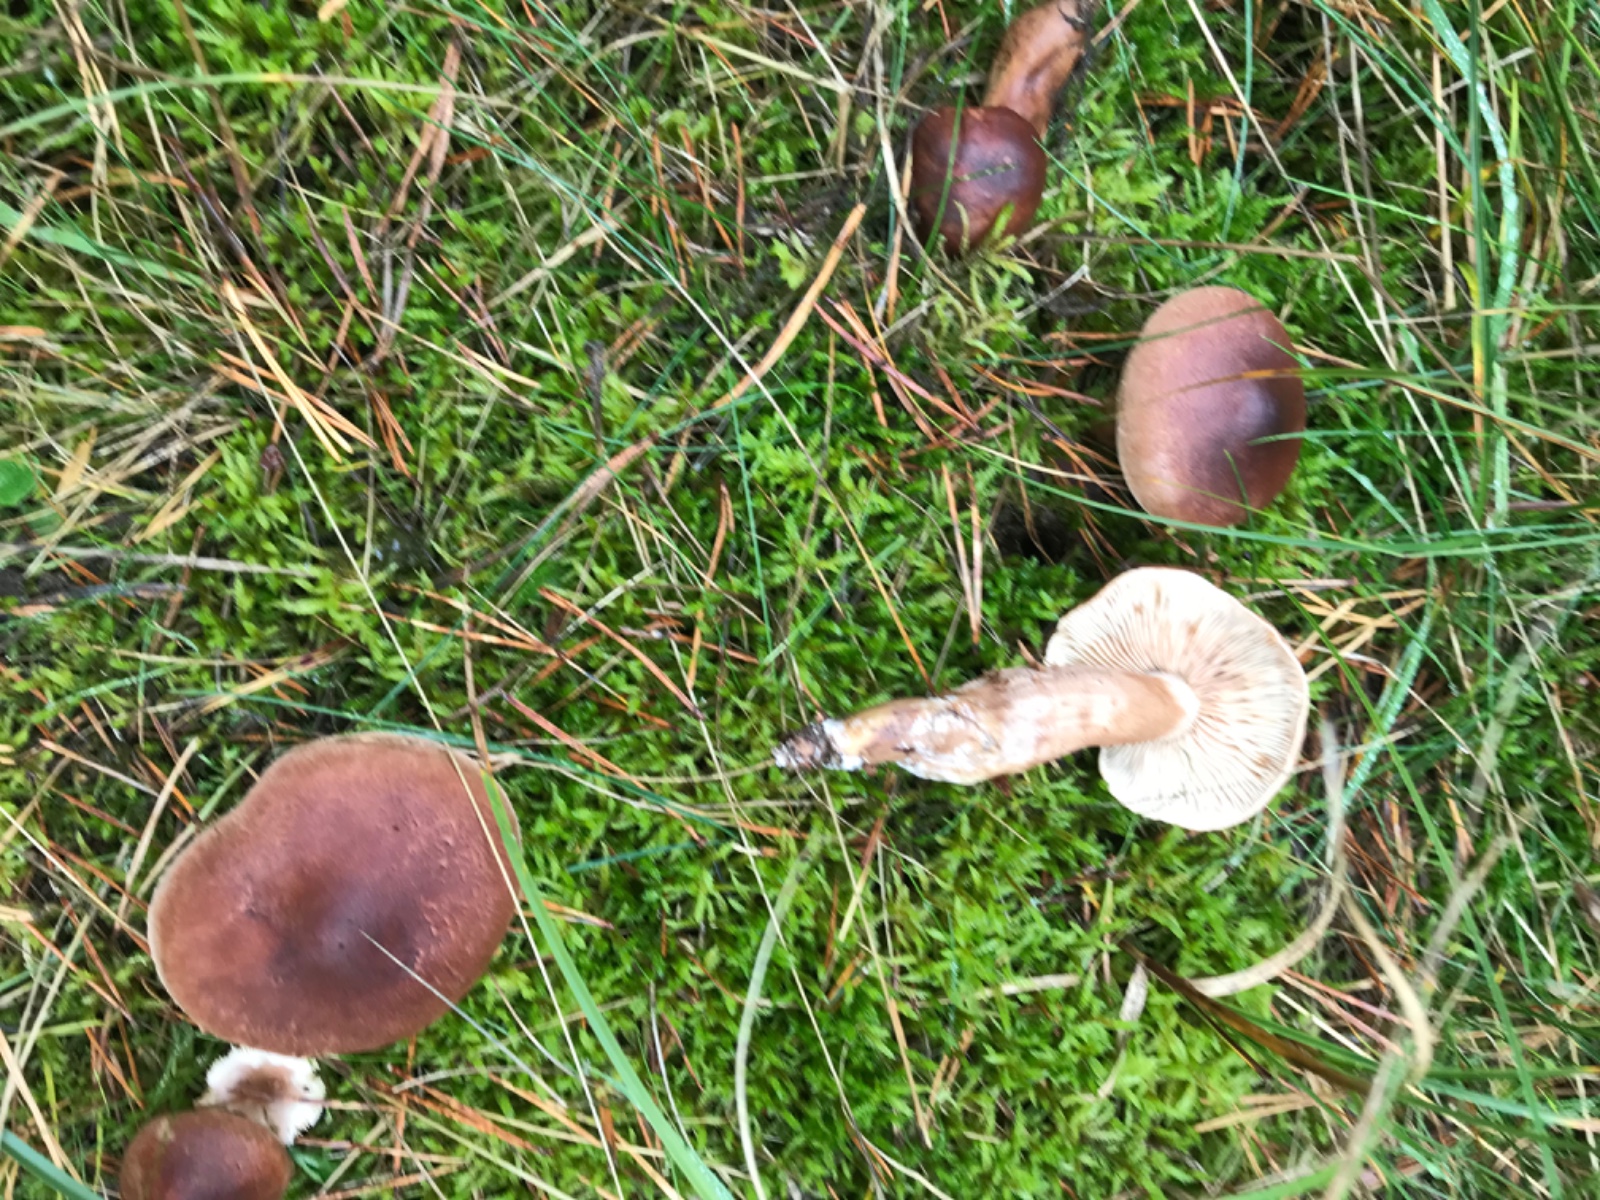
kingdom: Fungi
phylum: Basidiomycota
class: Agaricomycetes
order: Agaricales
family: Tricholomataceae
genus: Tricholoma
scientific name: Tricholoma albobrunneum
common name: kastanie-ridderhat
